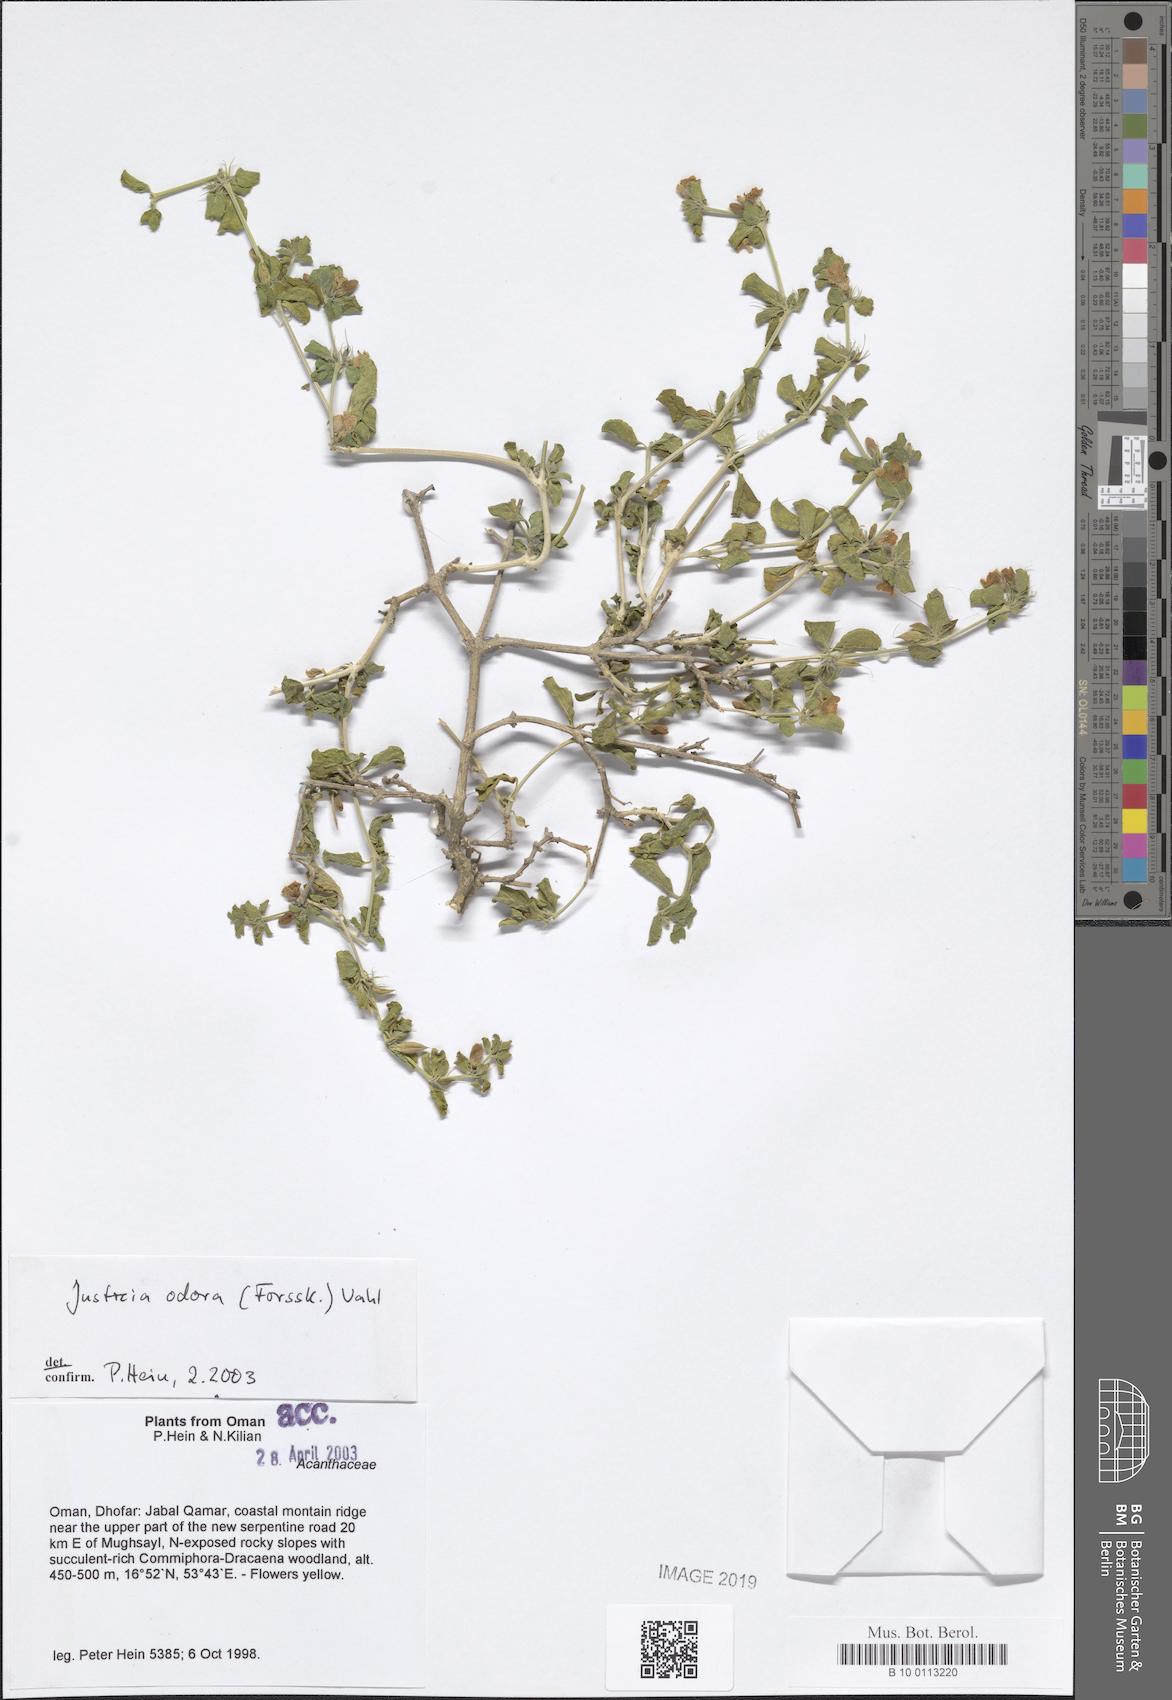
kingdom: Plantae
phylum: Tracheophyta
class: Magnoliopsida
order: Lamiales
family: Acanthaceae
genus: Justicia
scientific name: Justicia odora
